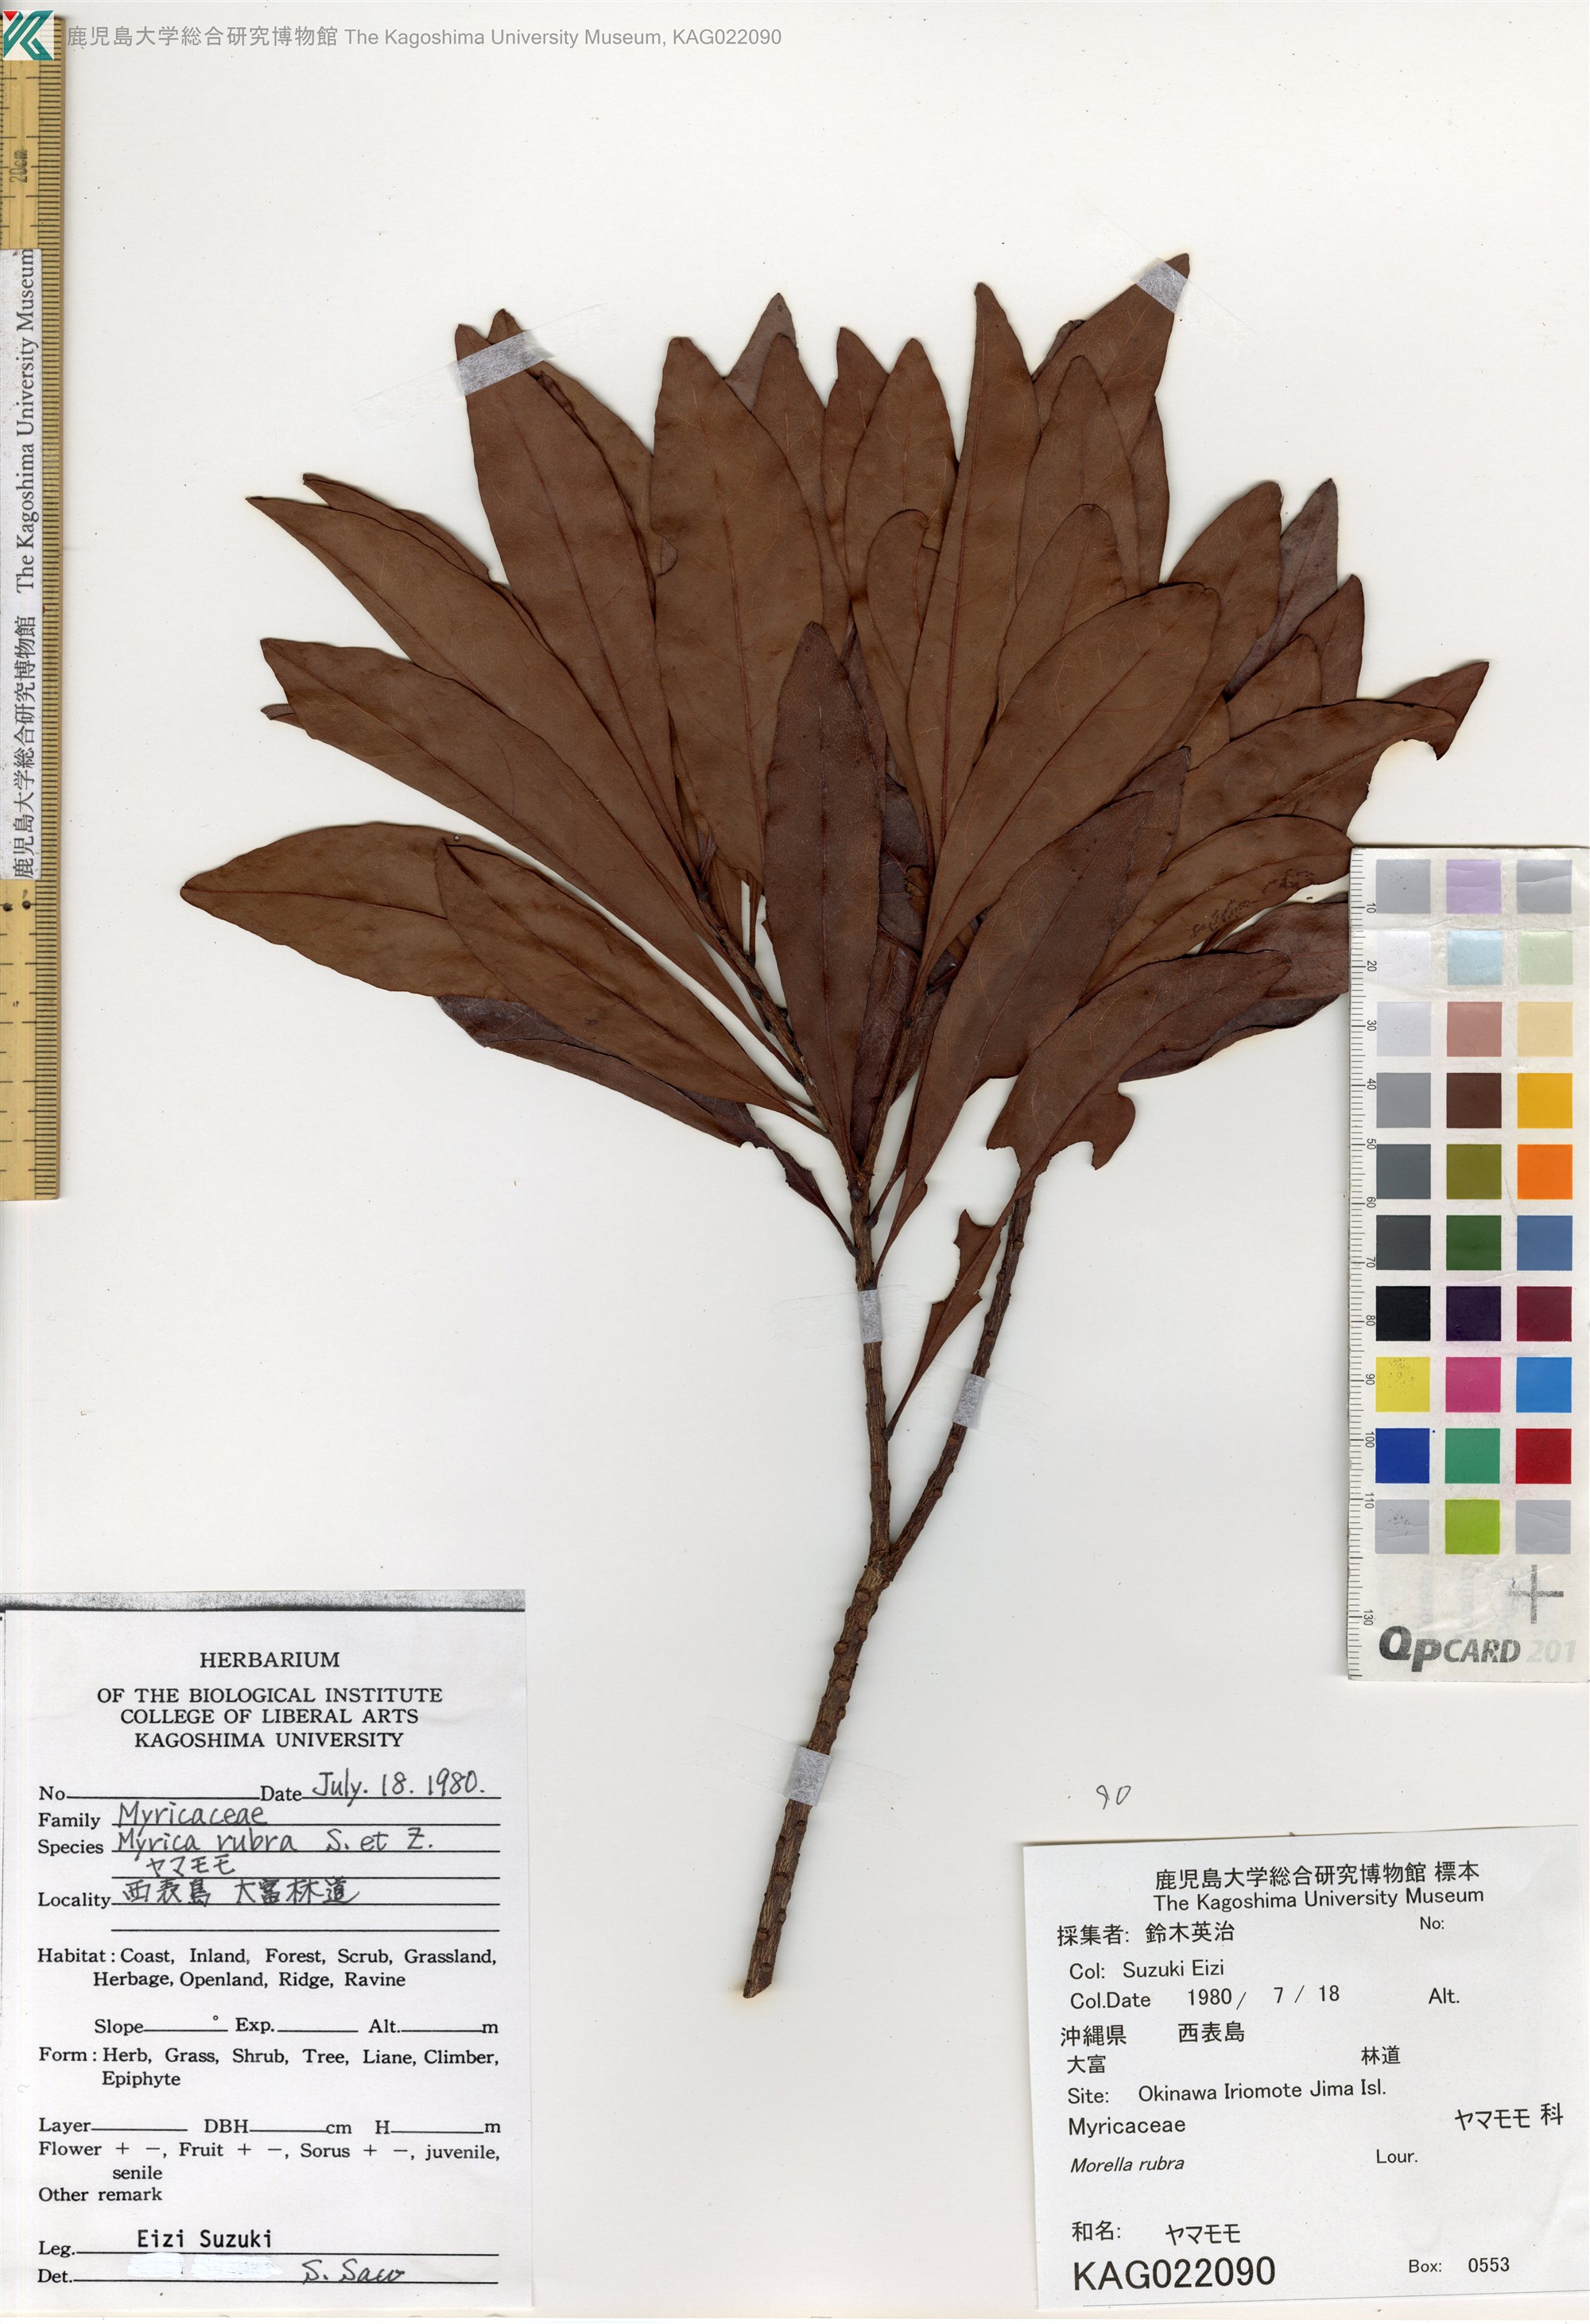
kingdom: Plantae
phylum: Tracheophyta
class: Magnoliopsida
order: Fagales
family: Myricaceae
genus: Morella
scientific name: Morella rubra
